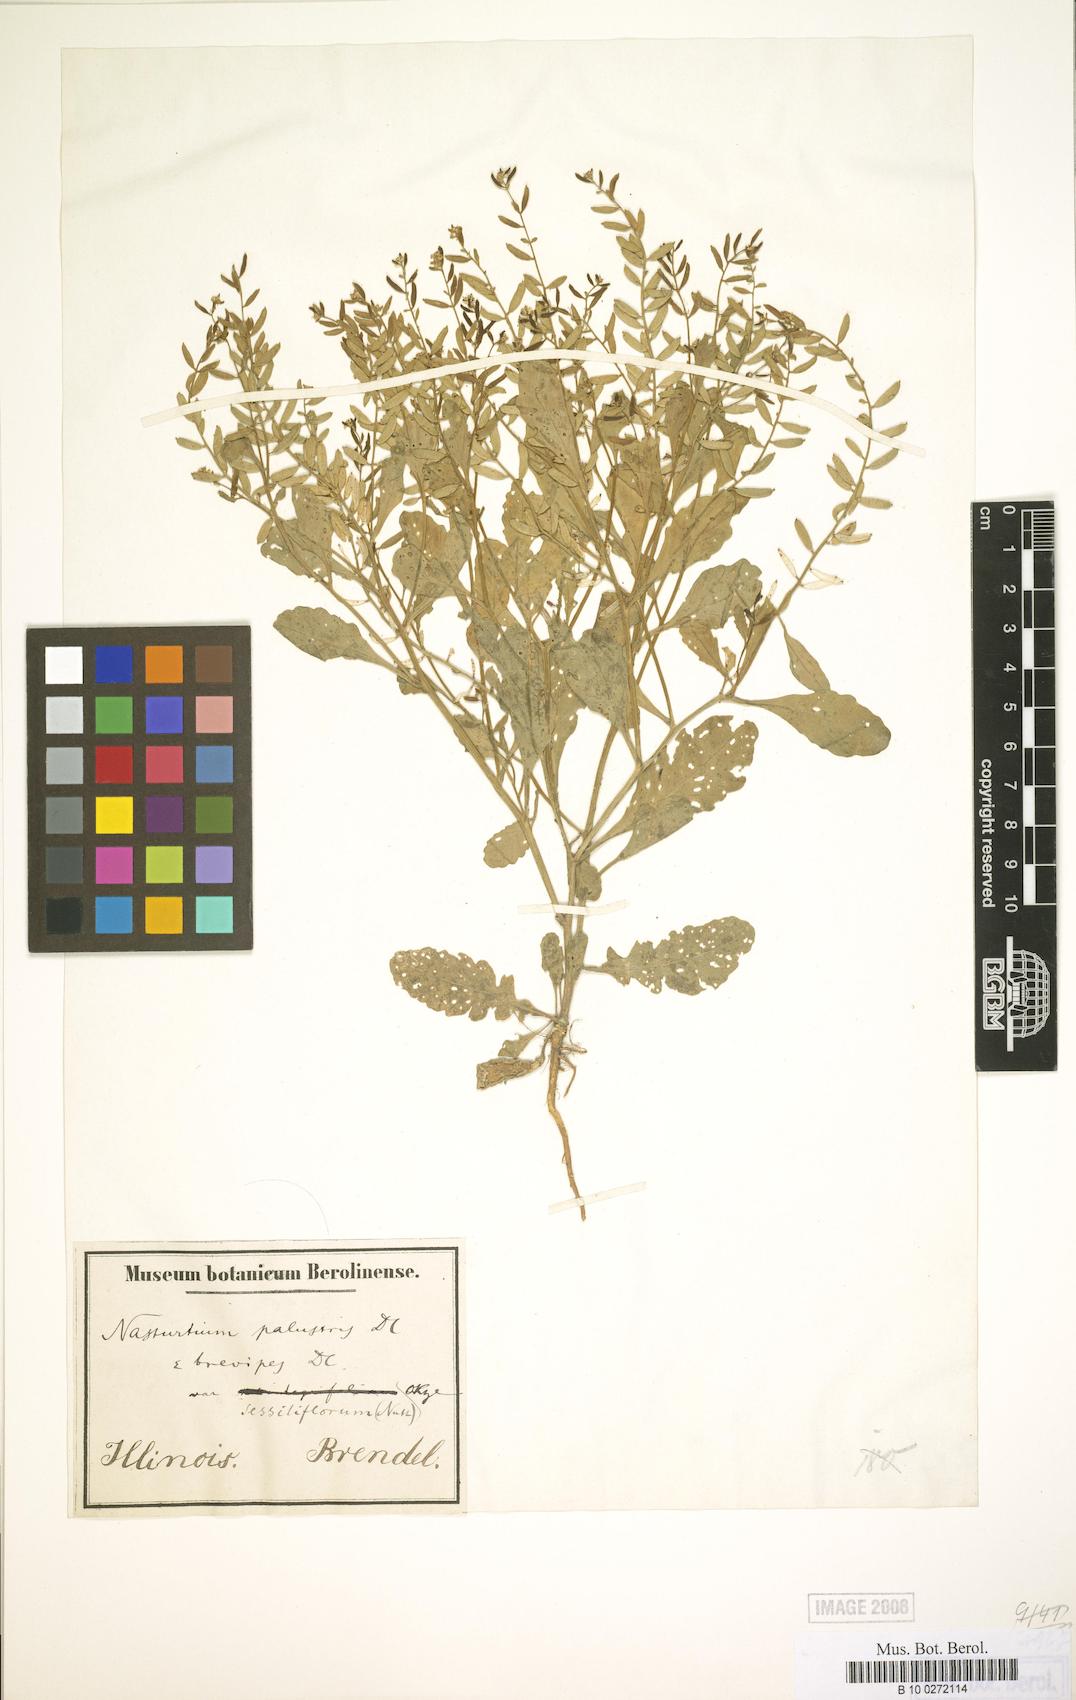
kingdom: Plantae
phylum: Tracheophyta
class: Magnoliopsida
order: Brassicales
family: Brassicaceae
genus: Rorippa
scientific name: Rorippa sessiliflora
